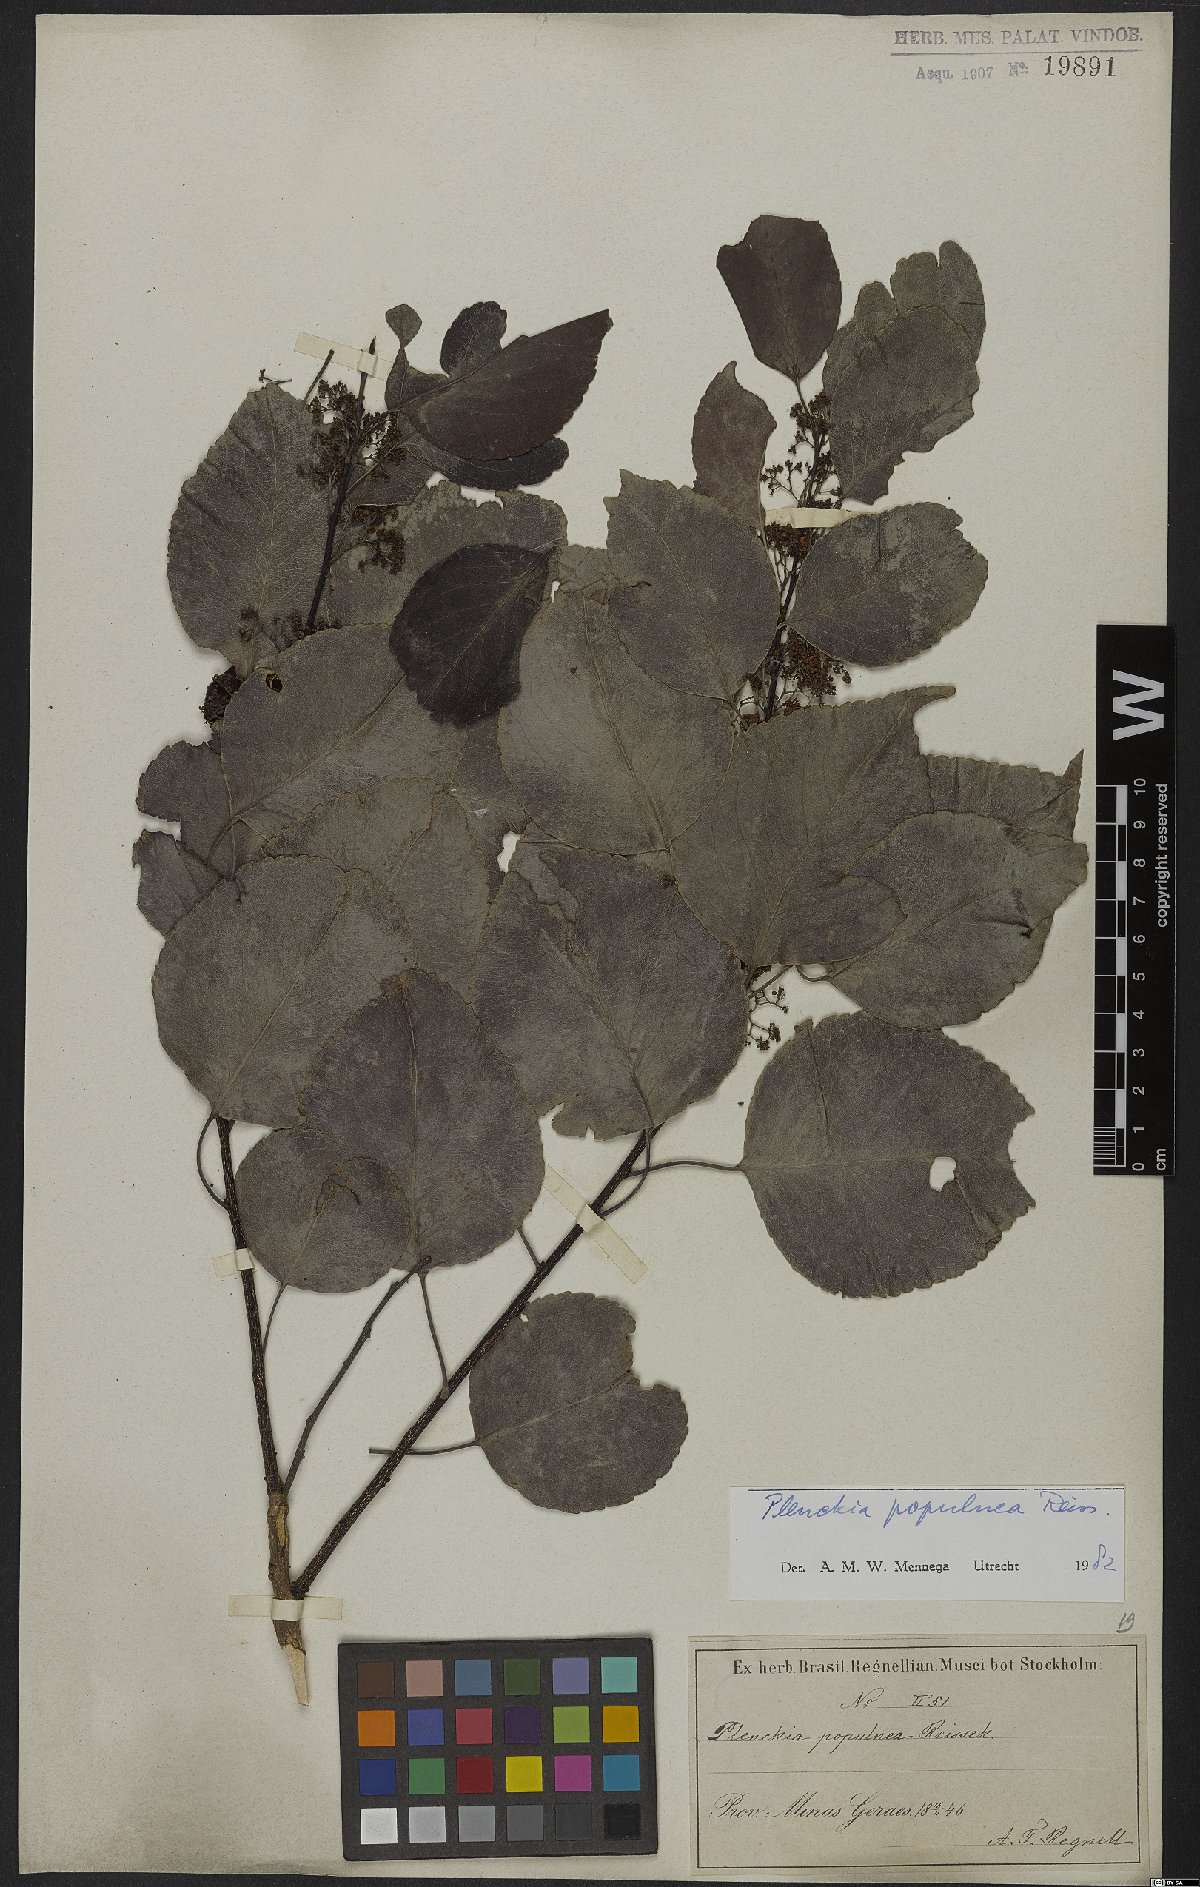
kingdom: Plantae
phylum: Tracheophyta
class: Magnoliopsida
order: Celastrales
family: Celastraceae
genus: Plenckia
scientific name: Plenckia populnea
